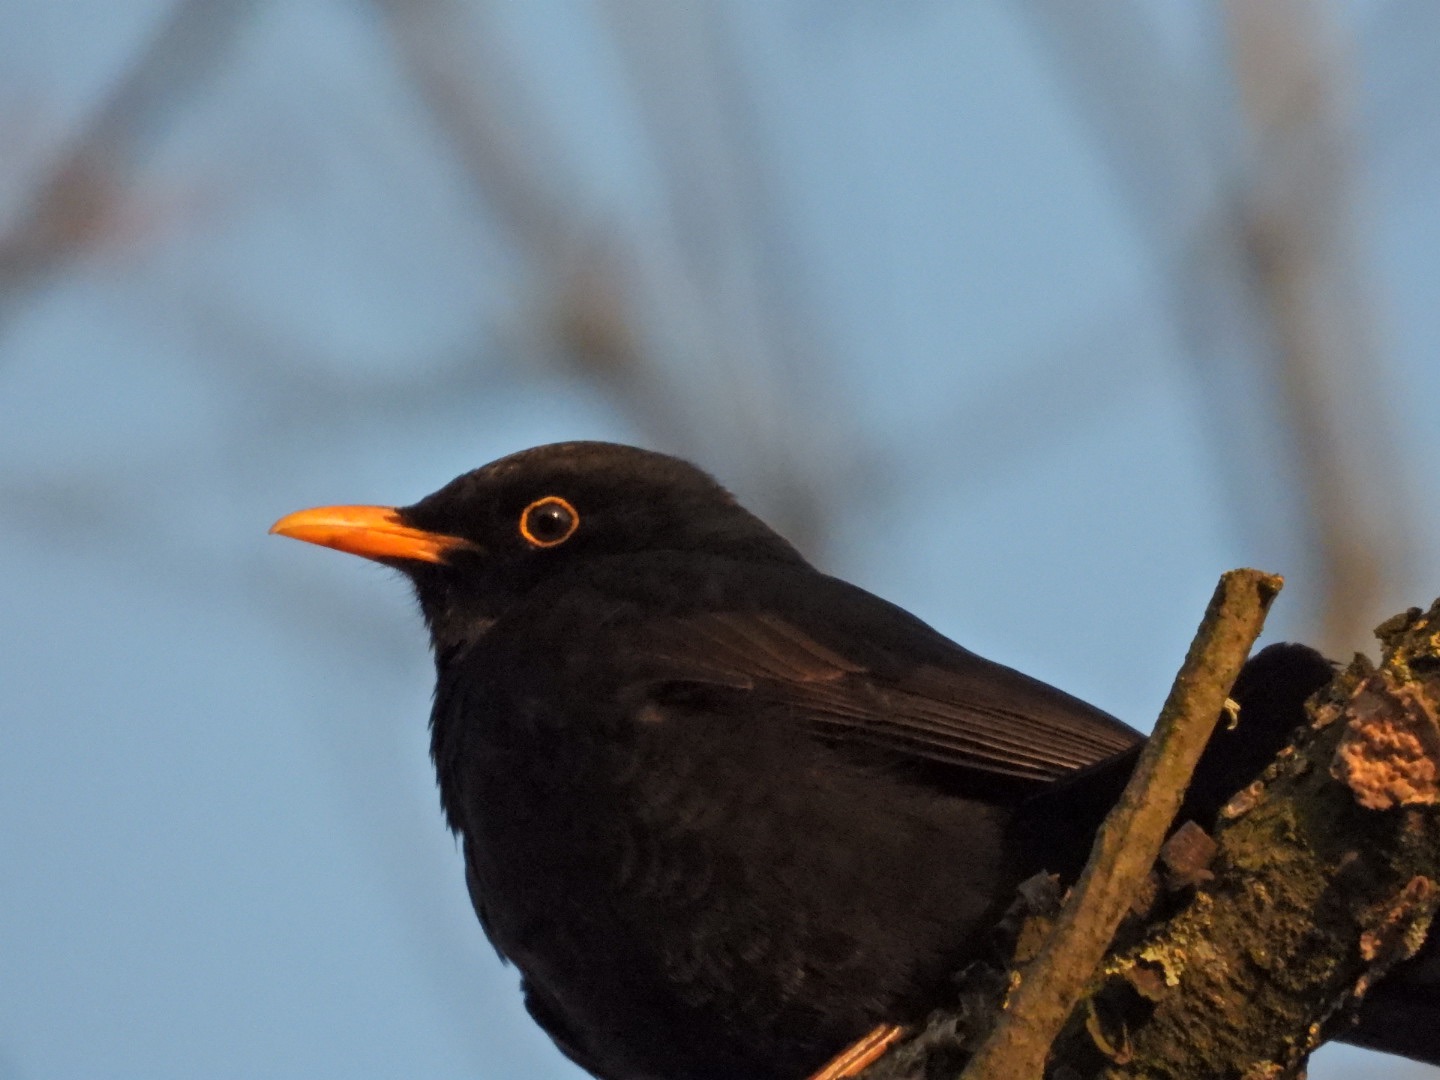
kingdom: Animalia
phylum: Chordata
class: Aves
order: Passeriformes
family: Turdidae
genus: Turdus
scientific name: Turdus merula
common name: Solsort
